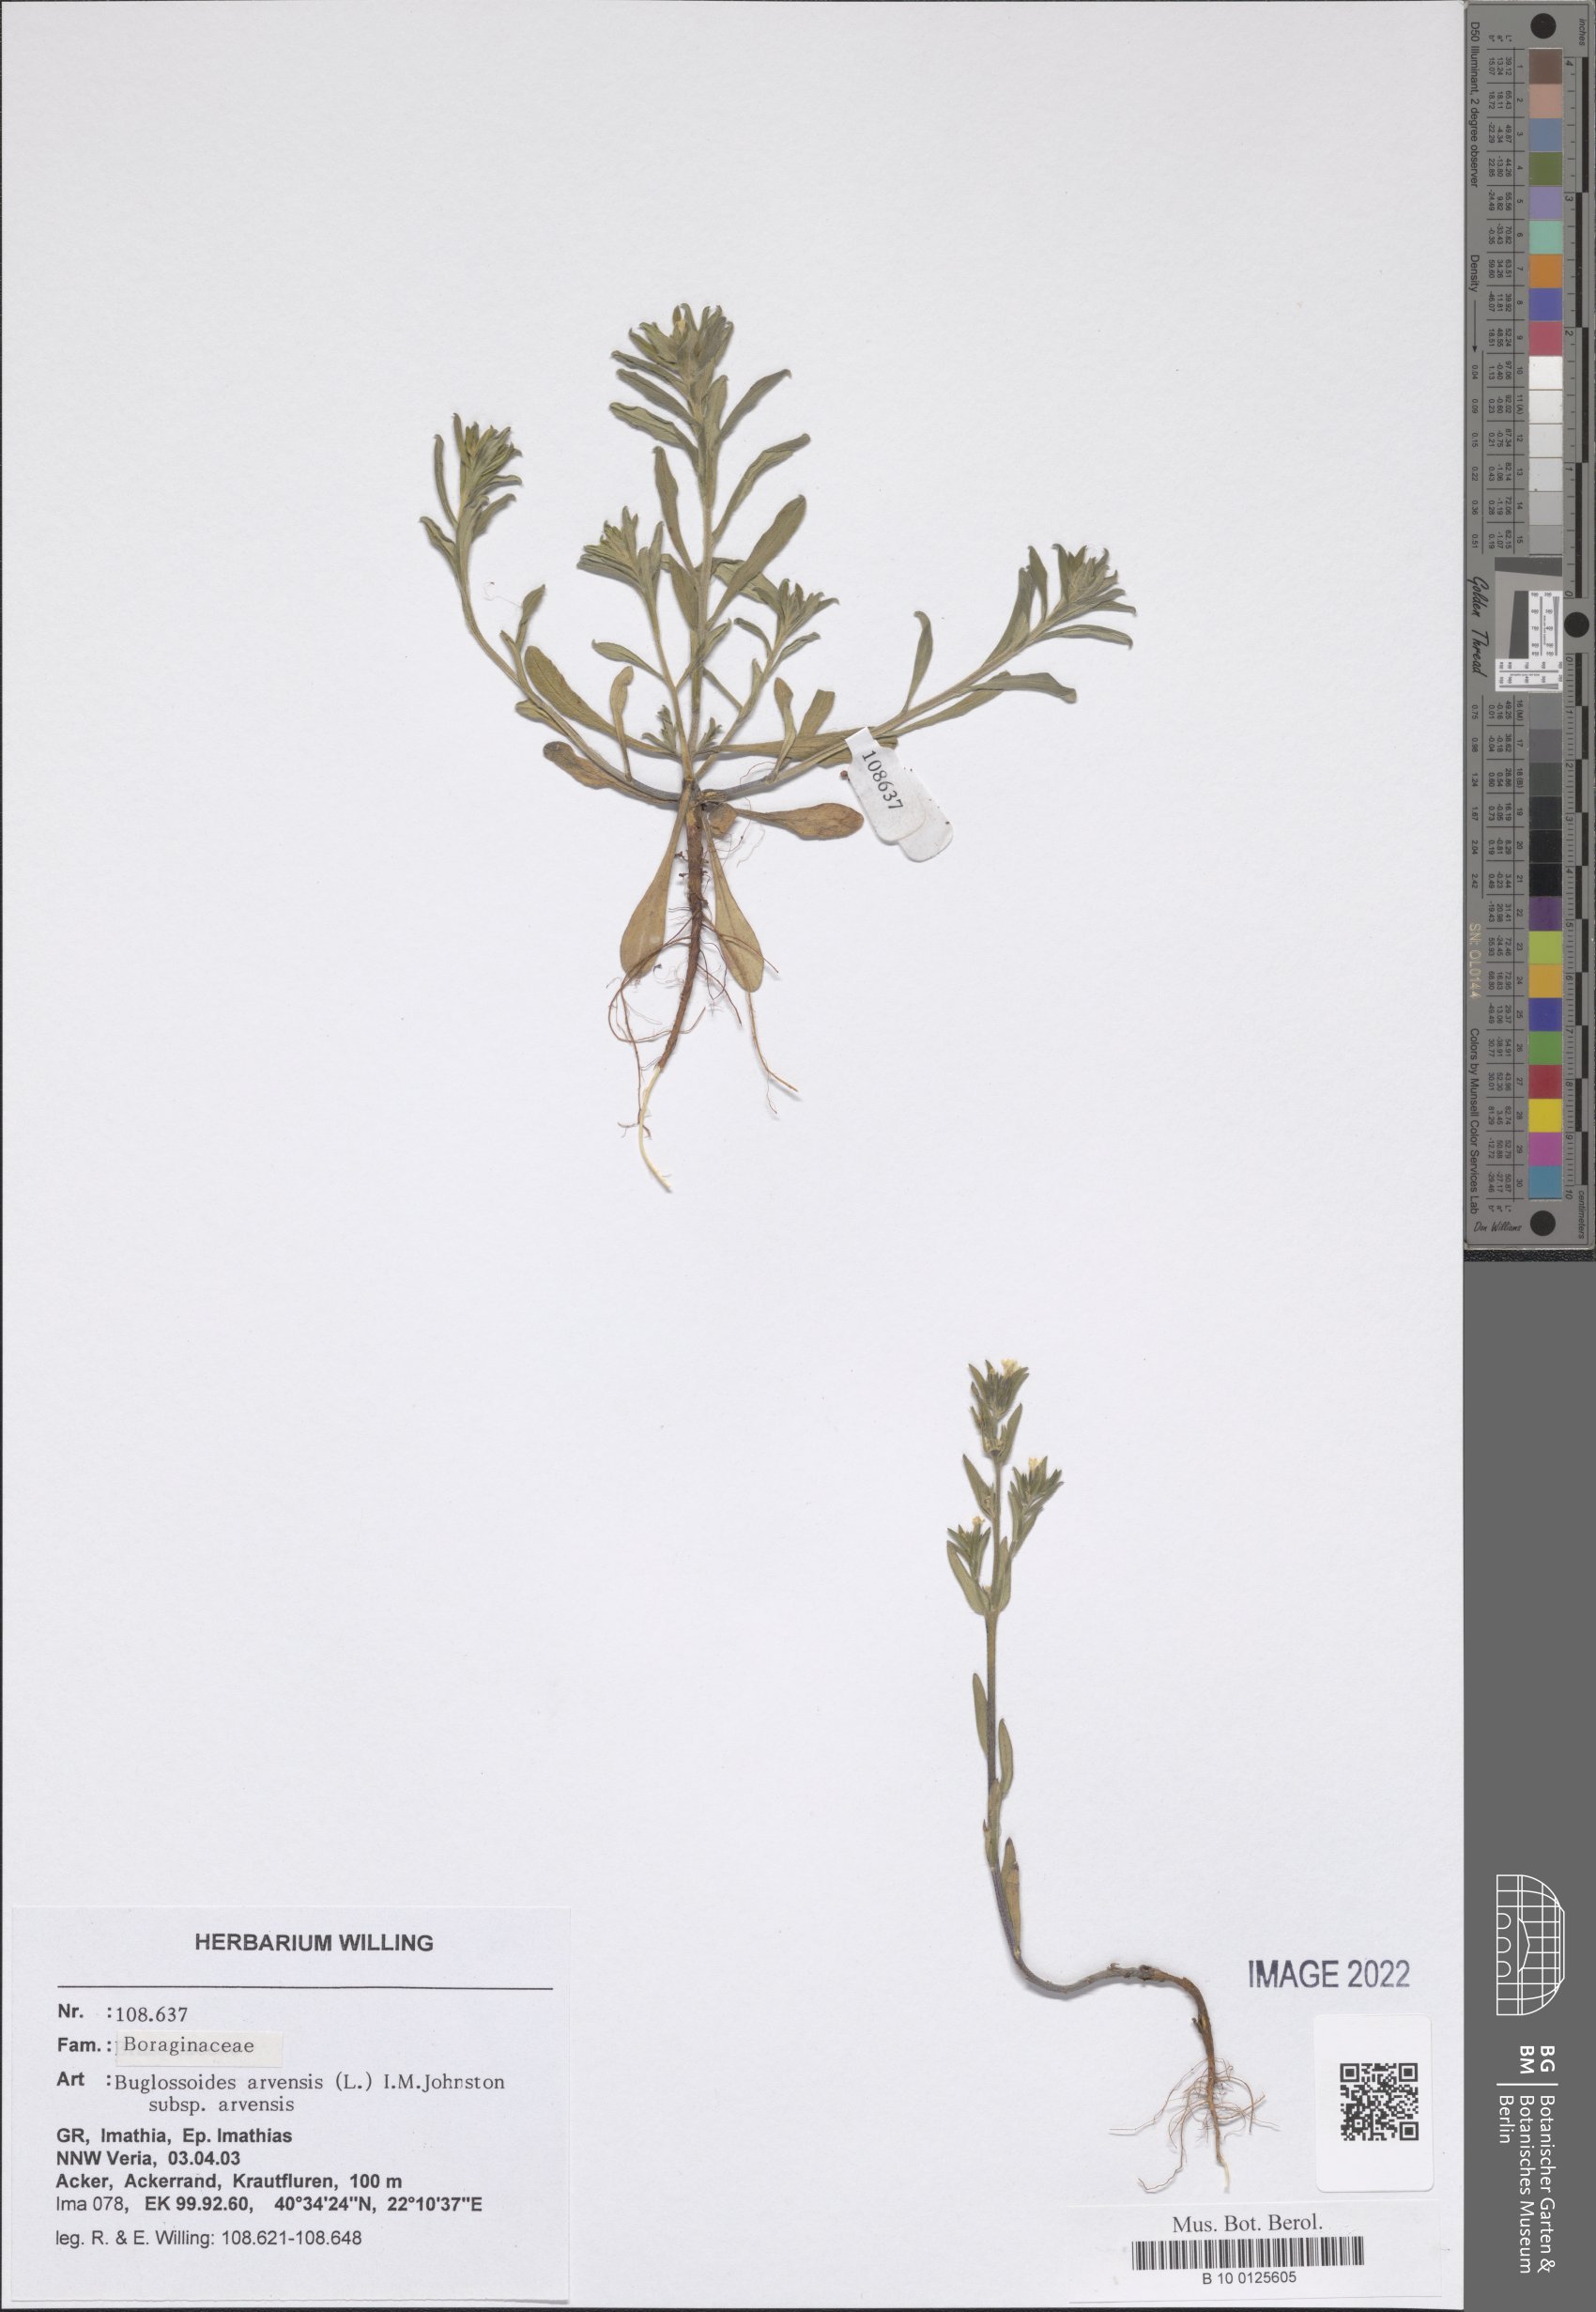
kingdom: Plantae
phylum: Tracheophyta
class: Magnoliopsida
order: Boraginales
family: Boraginaceae
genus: Buglossoides
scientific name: Buglossoides arvensis
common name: Corn gromwell
